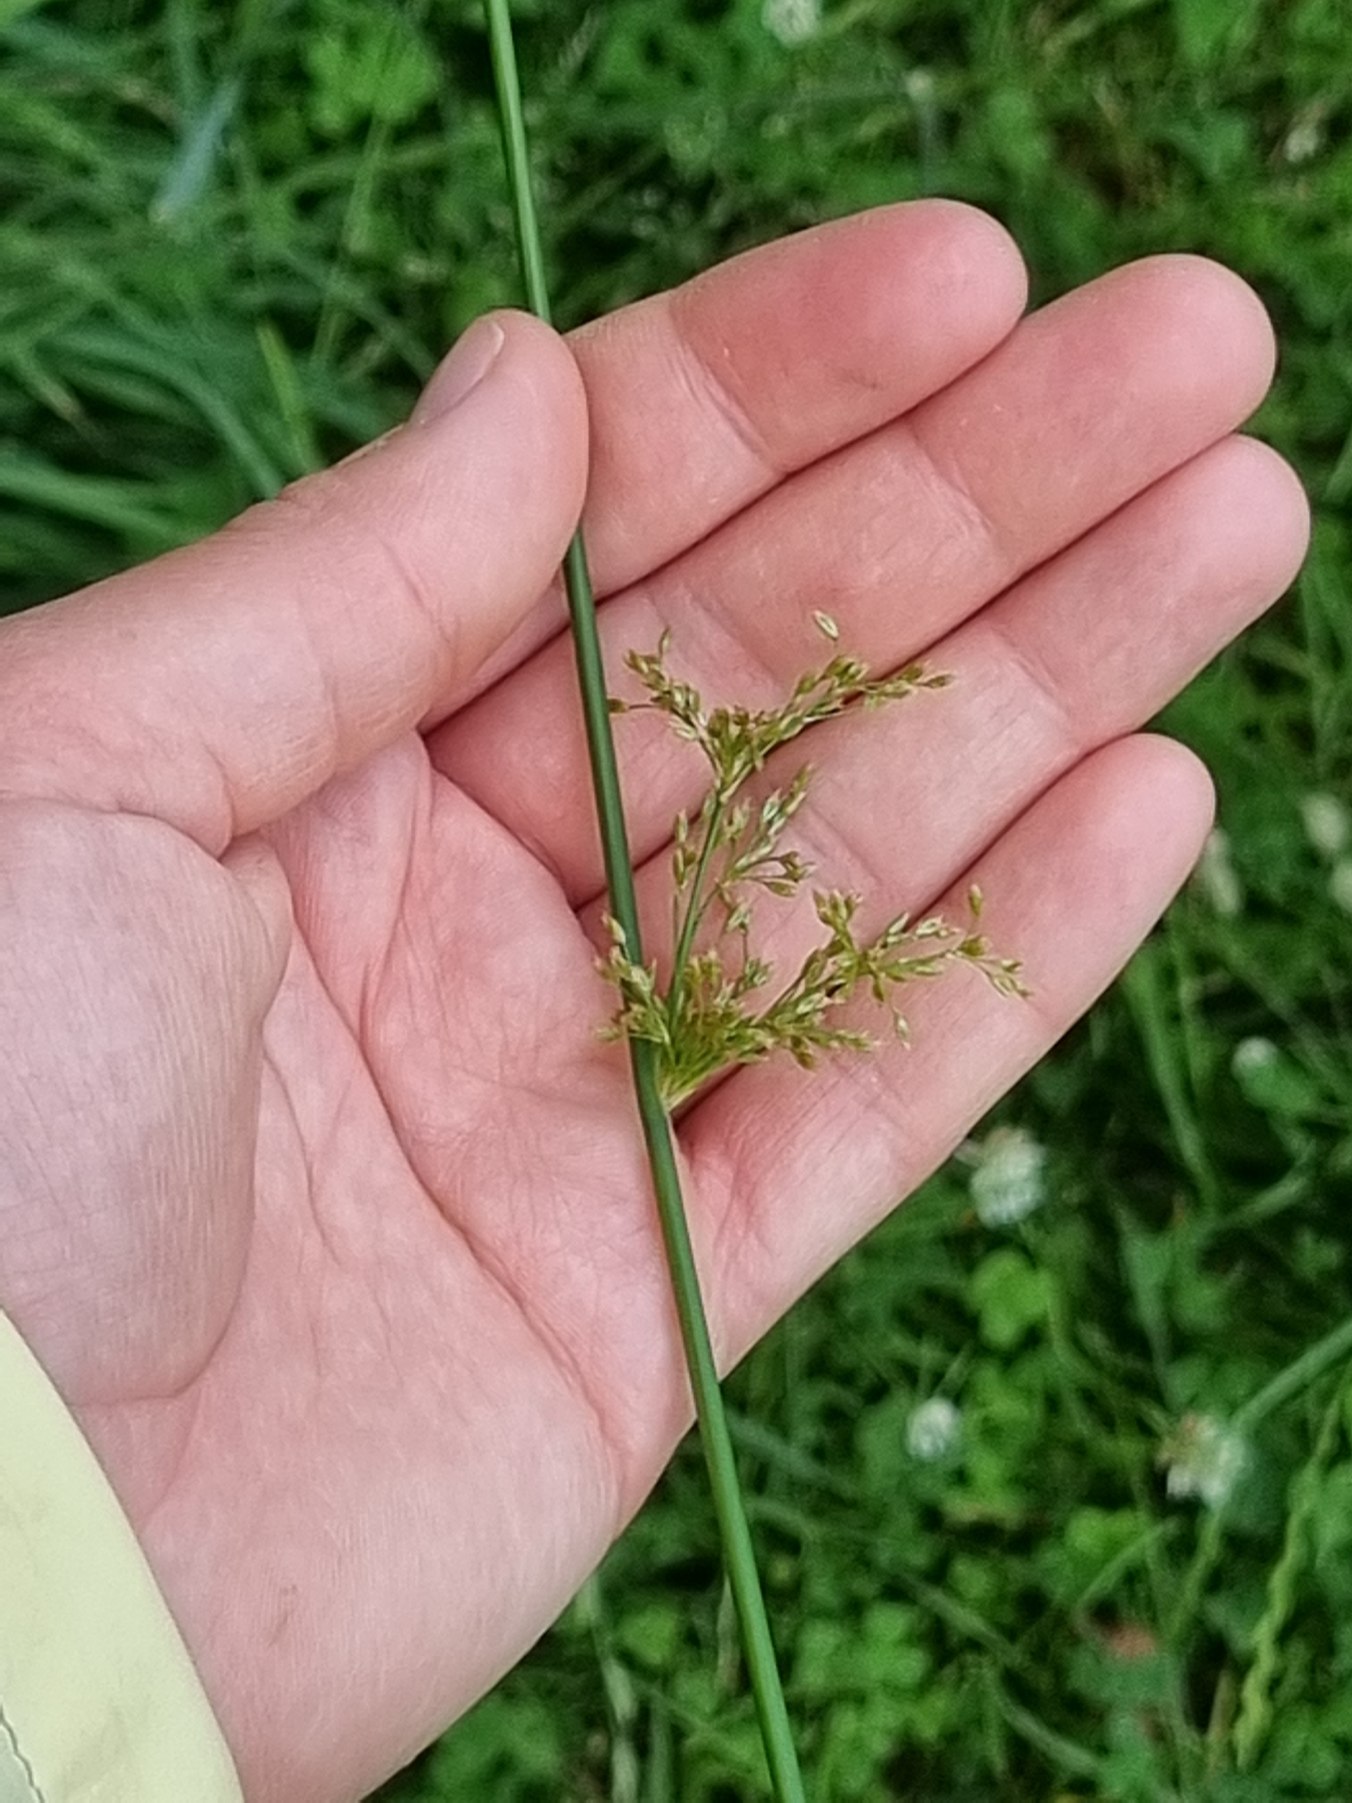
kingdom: Plantae
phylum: Tracheophyta
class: Liliopsida
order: Poales
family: Juncaceae
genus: Juncus
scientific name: Juncus effusus
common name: Lyse-siv
